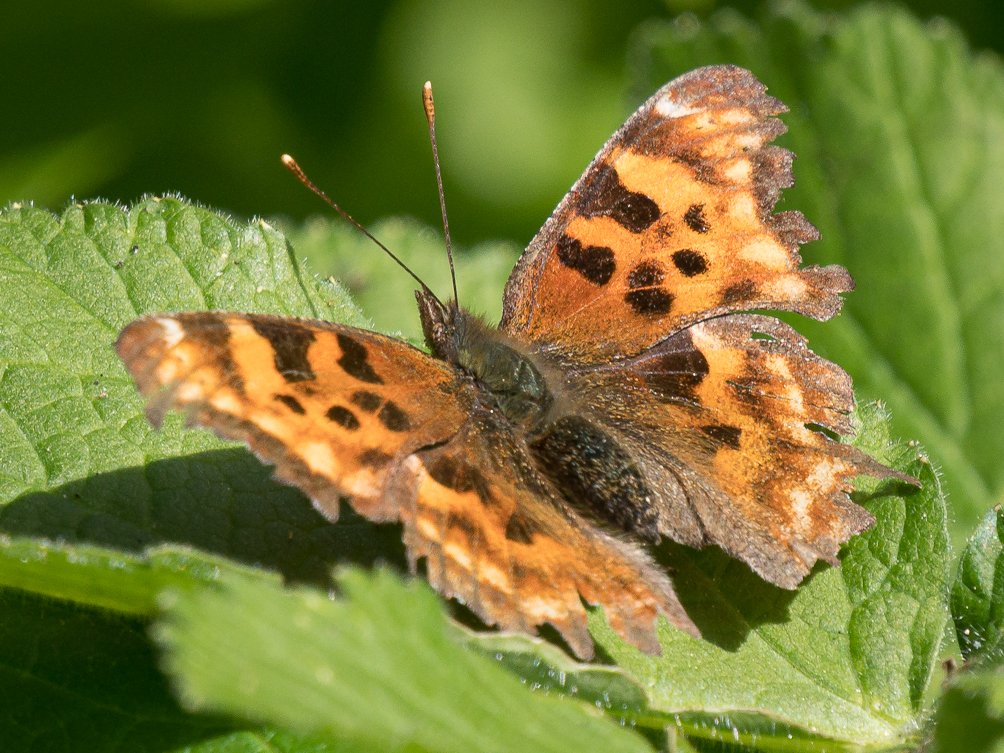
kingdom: Animalia
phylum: Arthropoda
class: Insecta
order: Lepidoptera
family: Nymphalidae
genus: Polygonia
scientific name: Polygonia satyrus
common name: Satyr Comma
